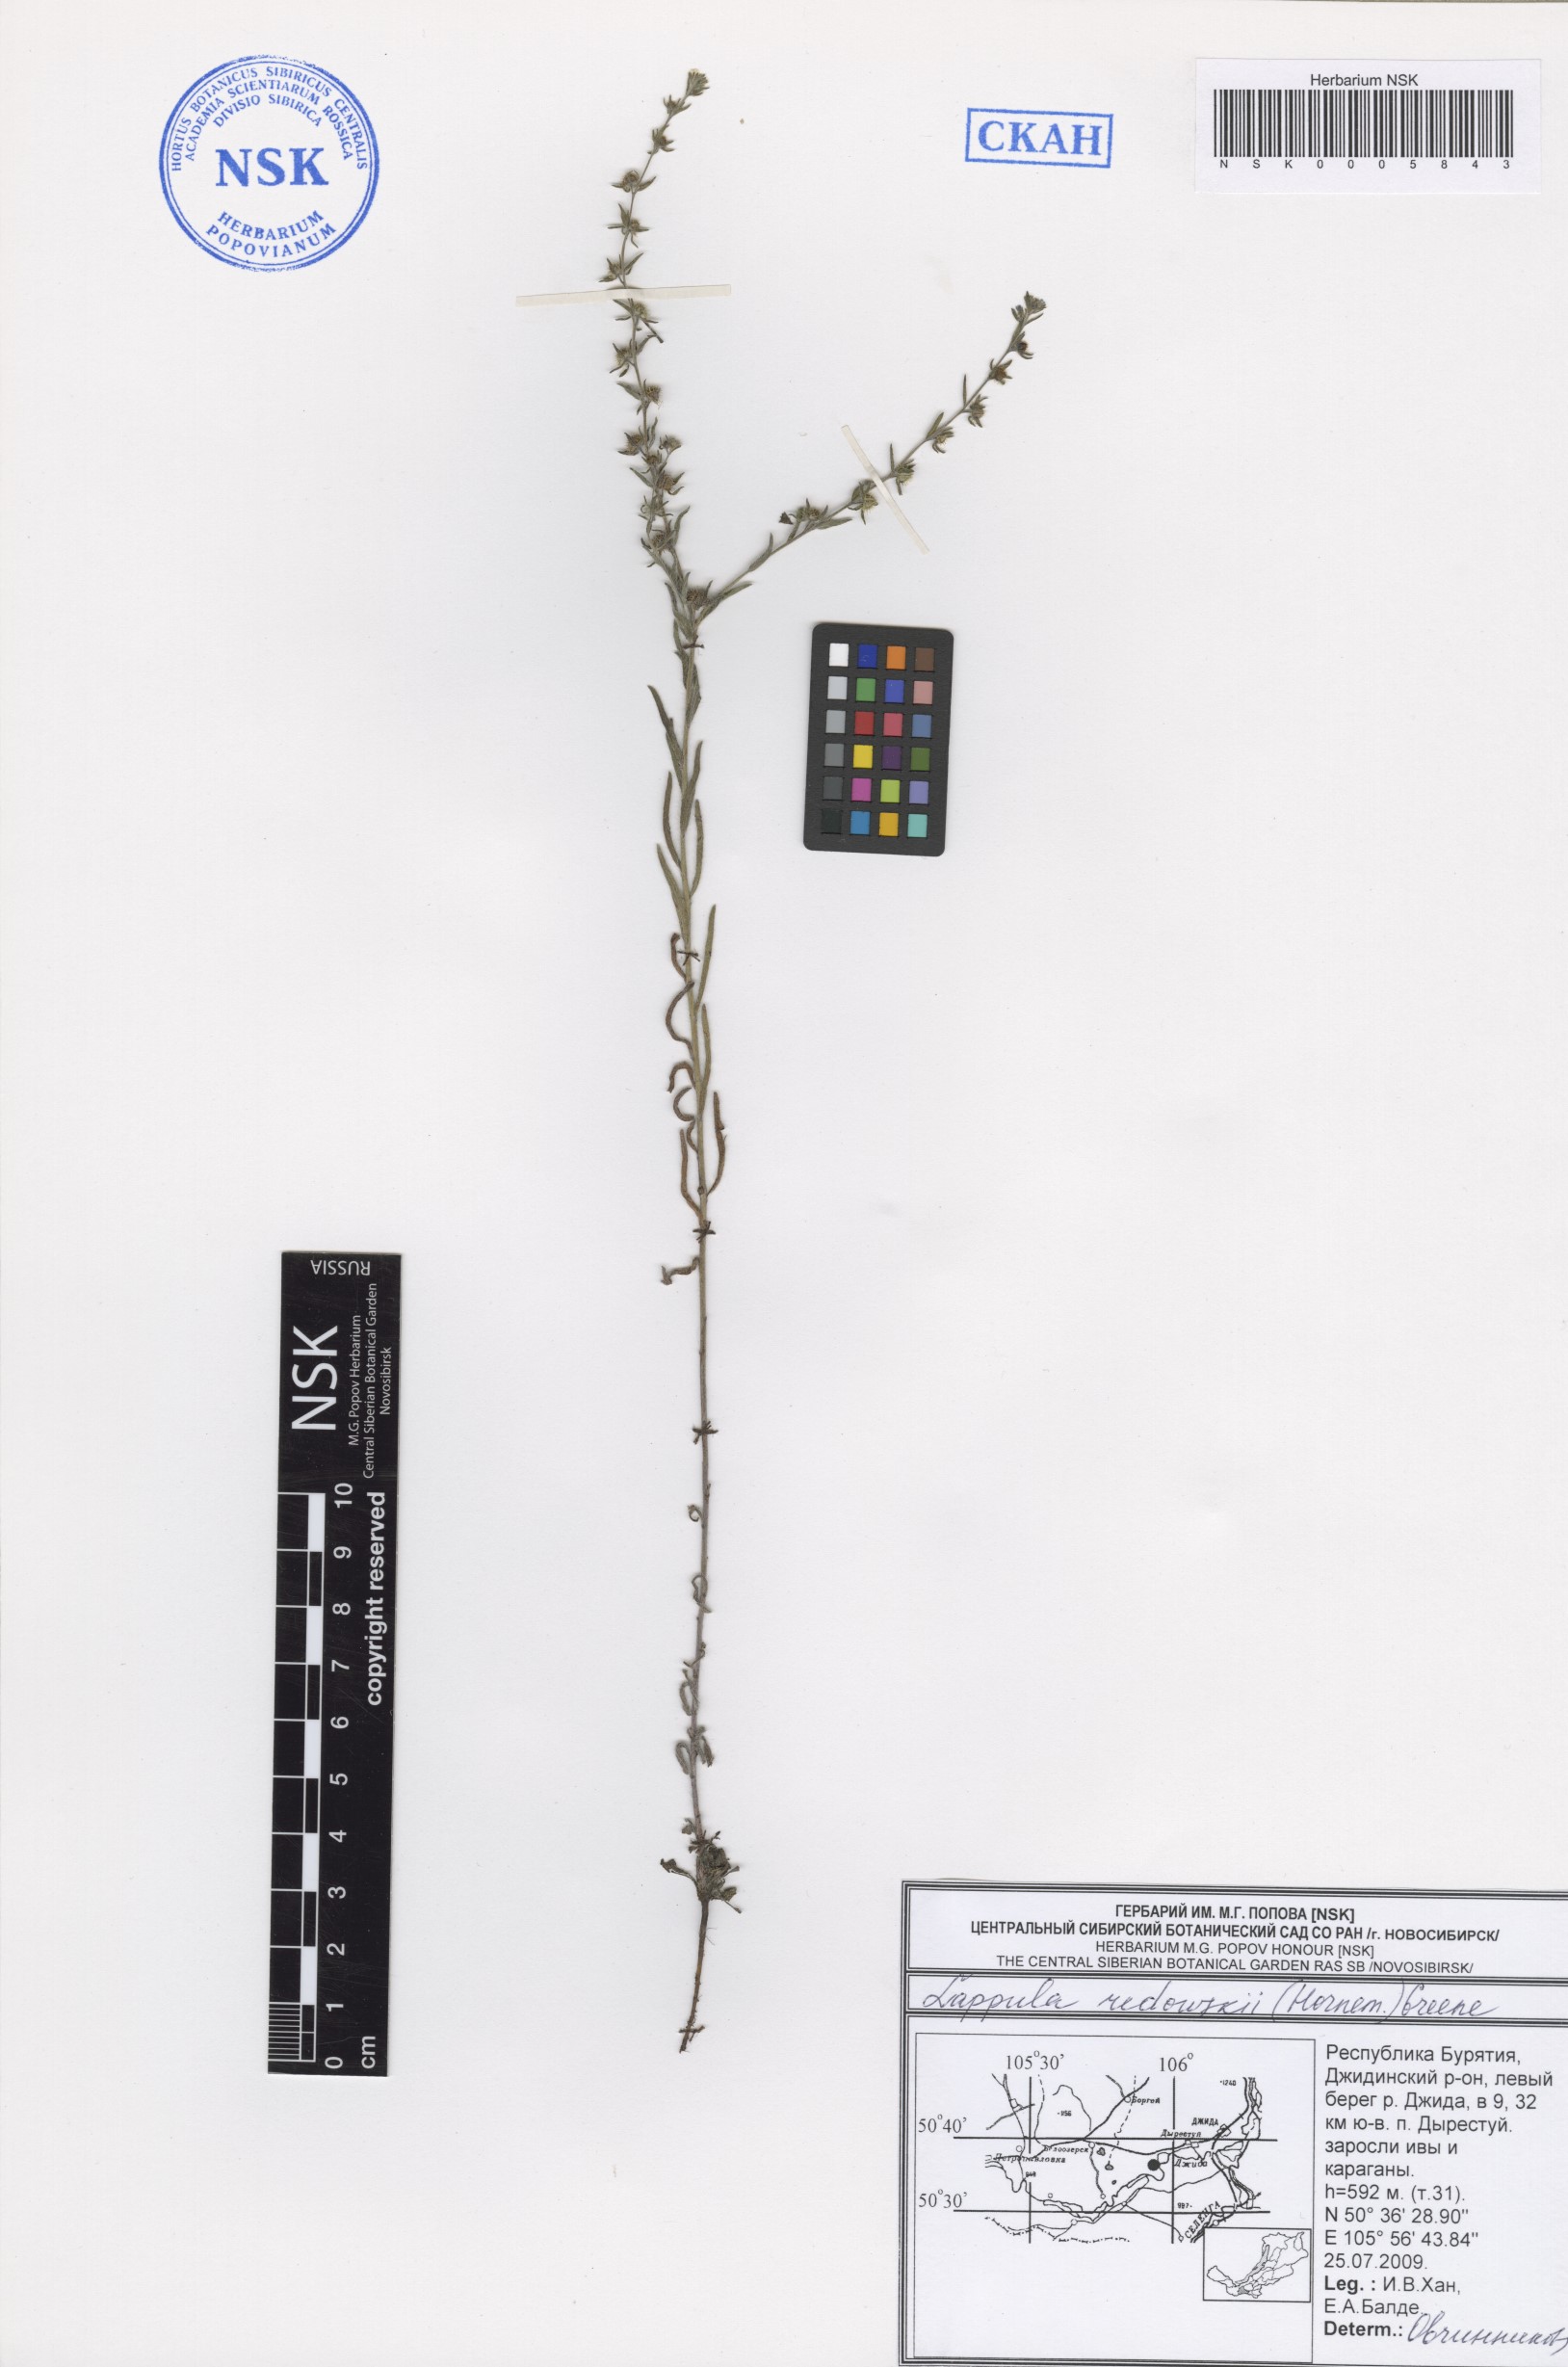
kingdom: Plantae
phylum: Tracheophyta
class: Magnoliopsida
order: Boraginales
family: Boraginaceae
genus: Lappula
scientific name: Lappula redowskii
